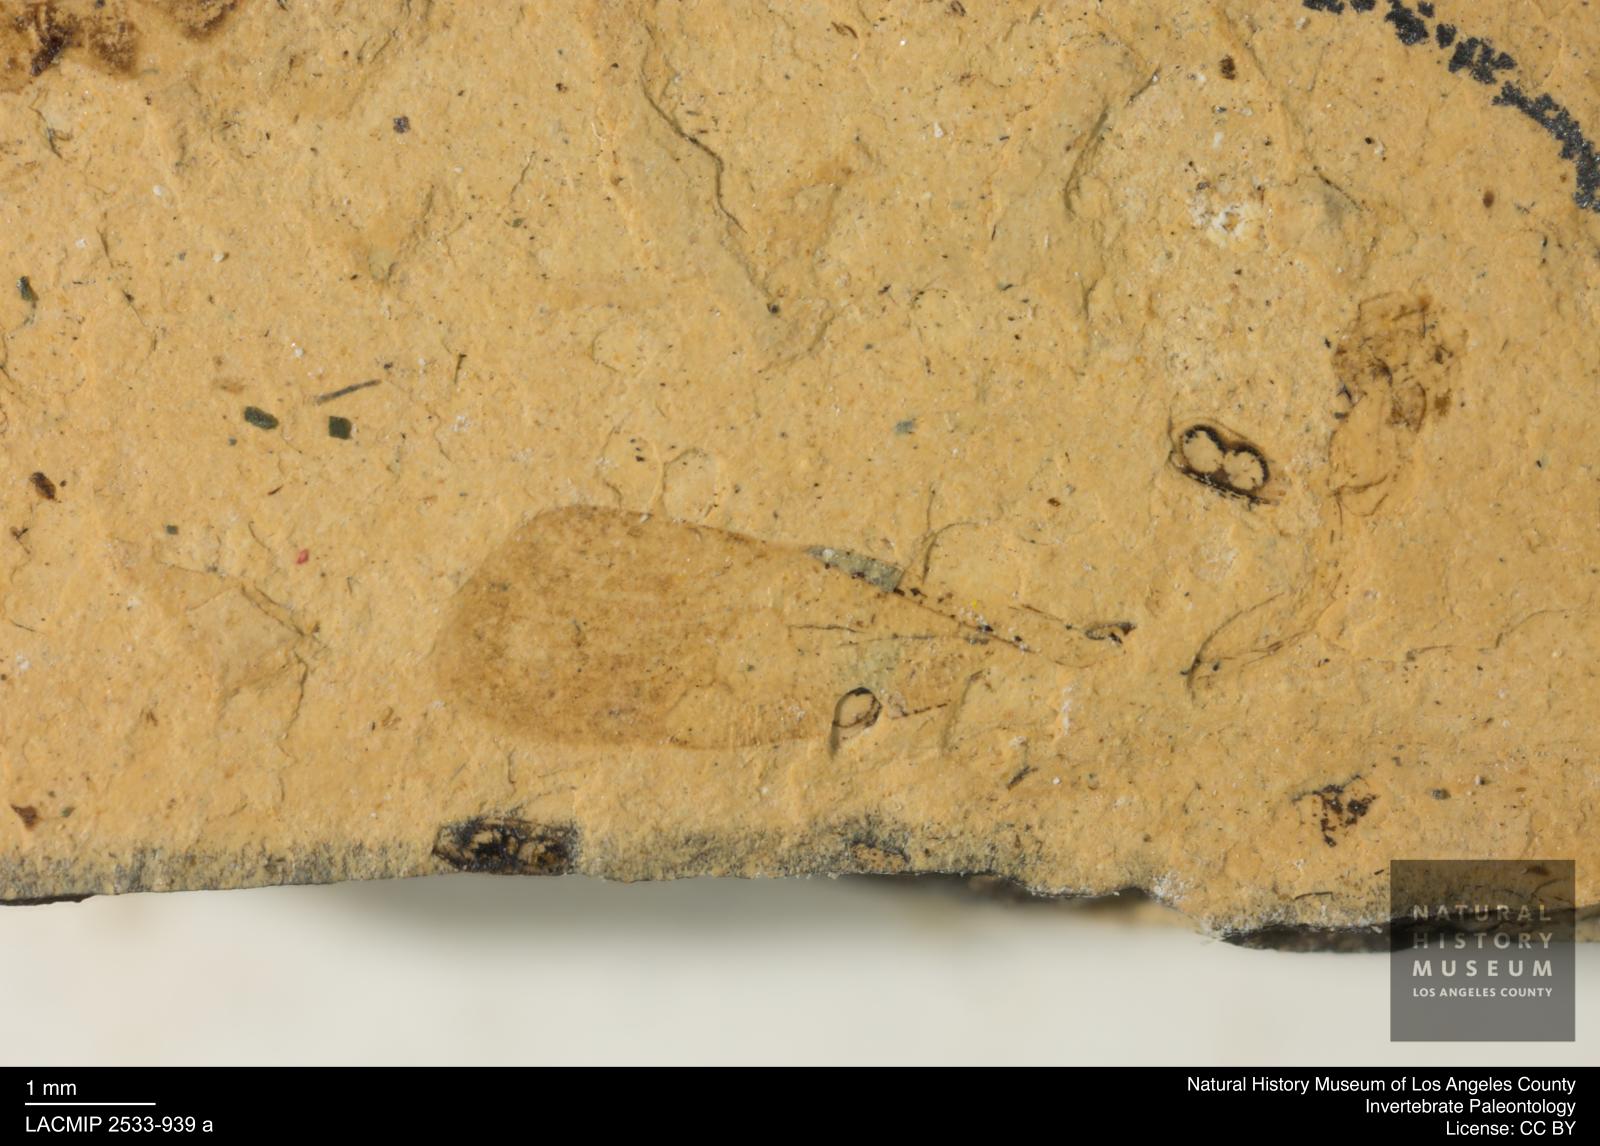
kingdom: Animalia
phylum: Arthropoda
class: Insecta
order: Hemiptera
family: Pentatomidae
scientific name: Pentatomidae
